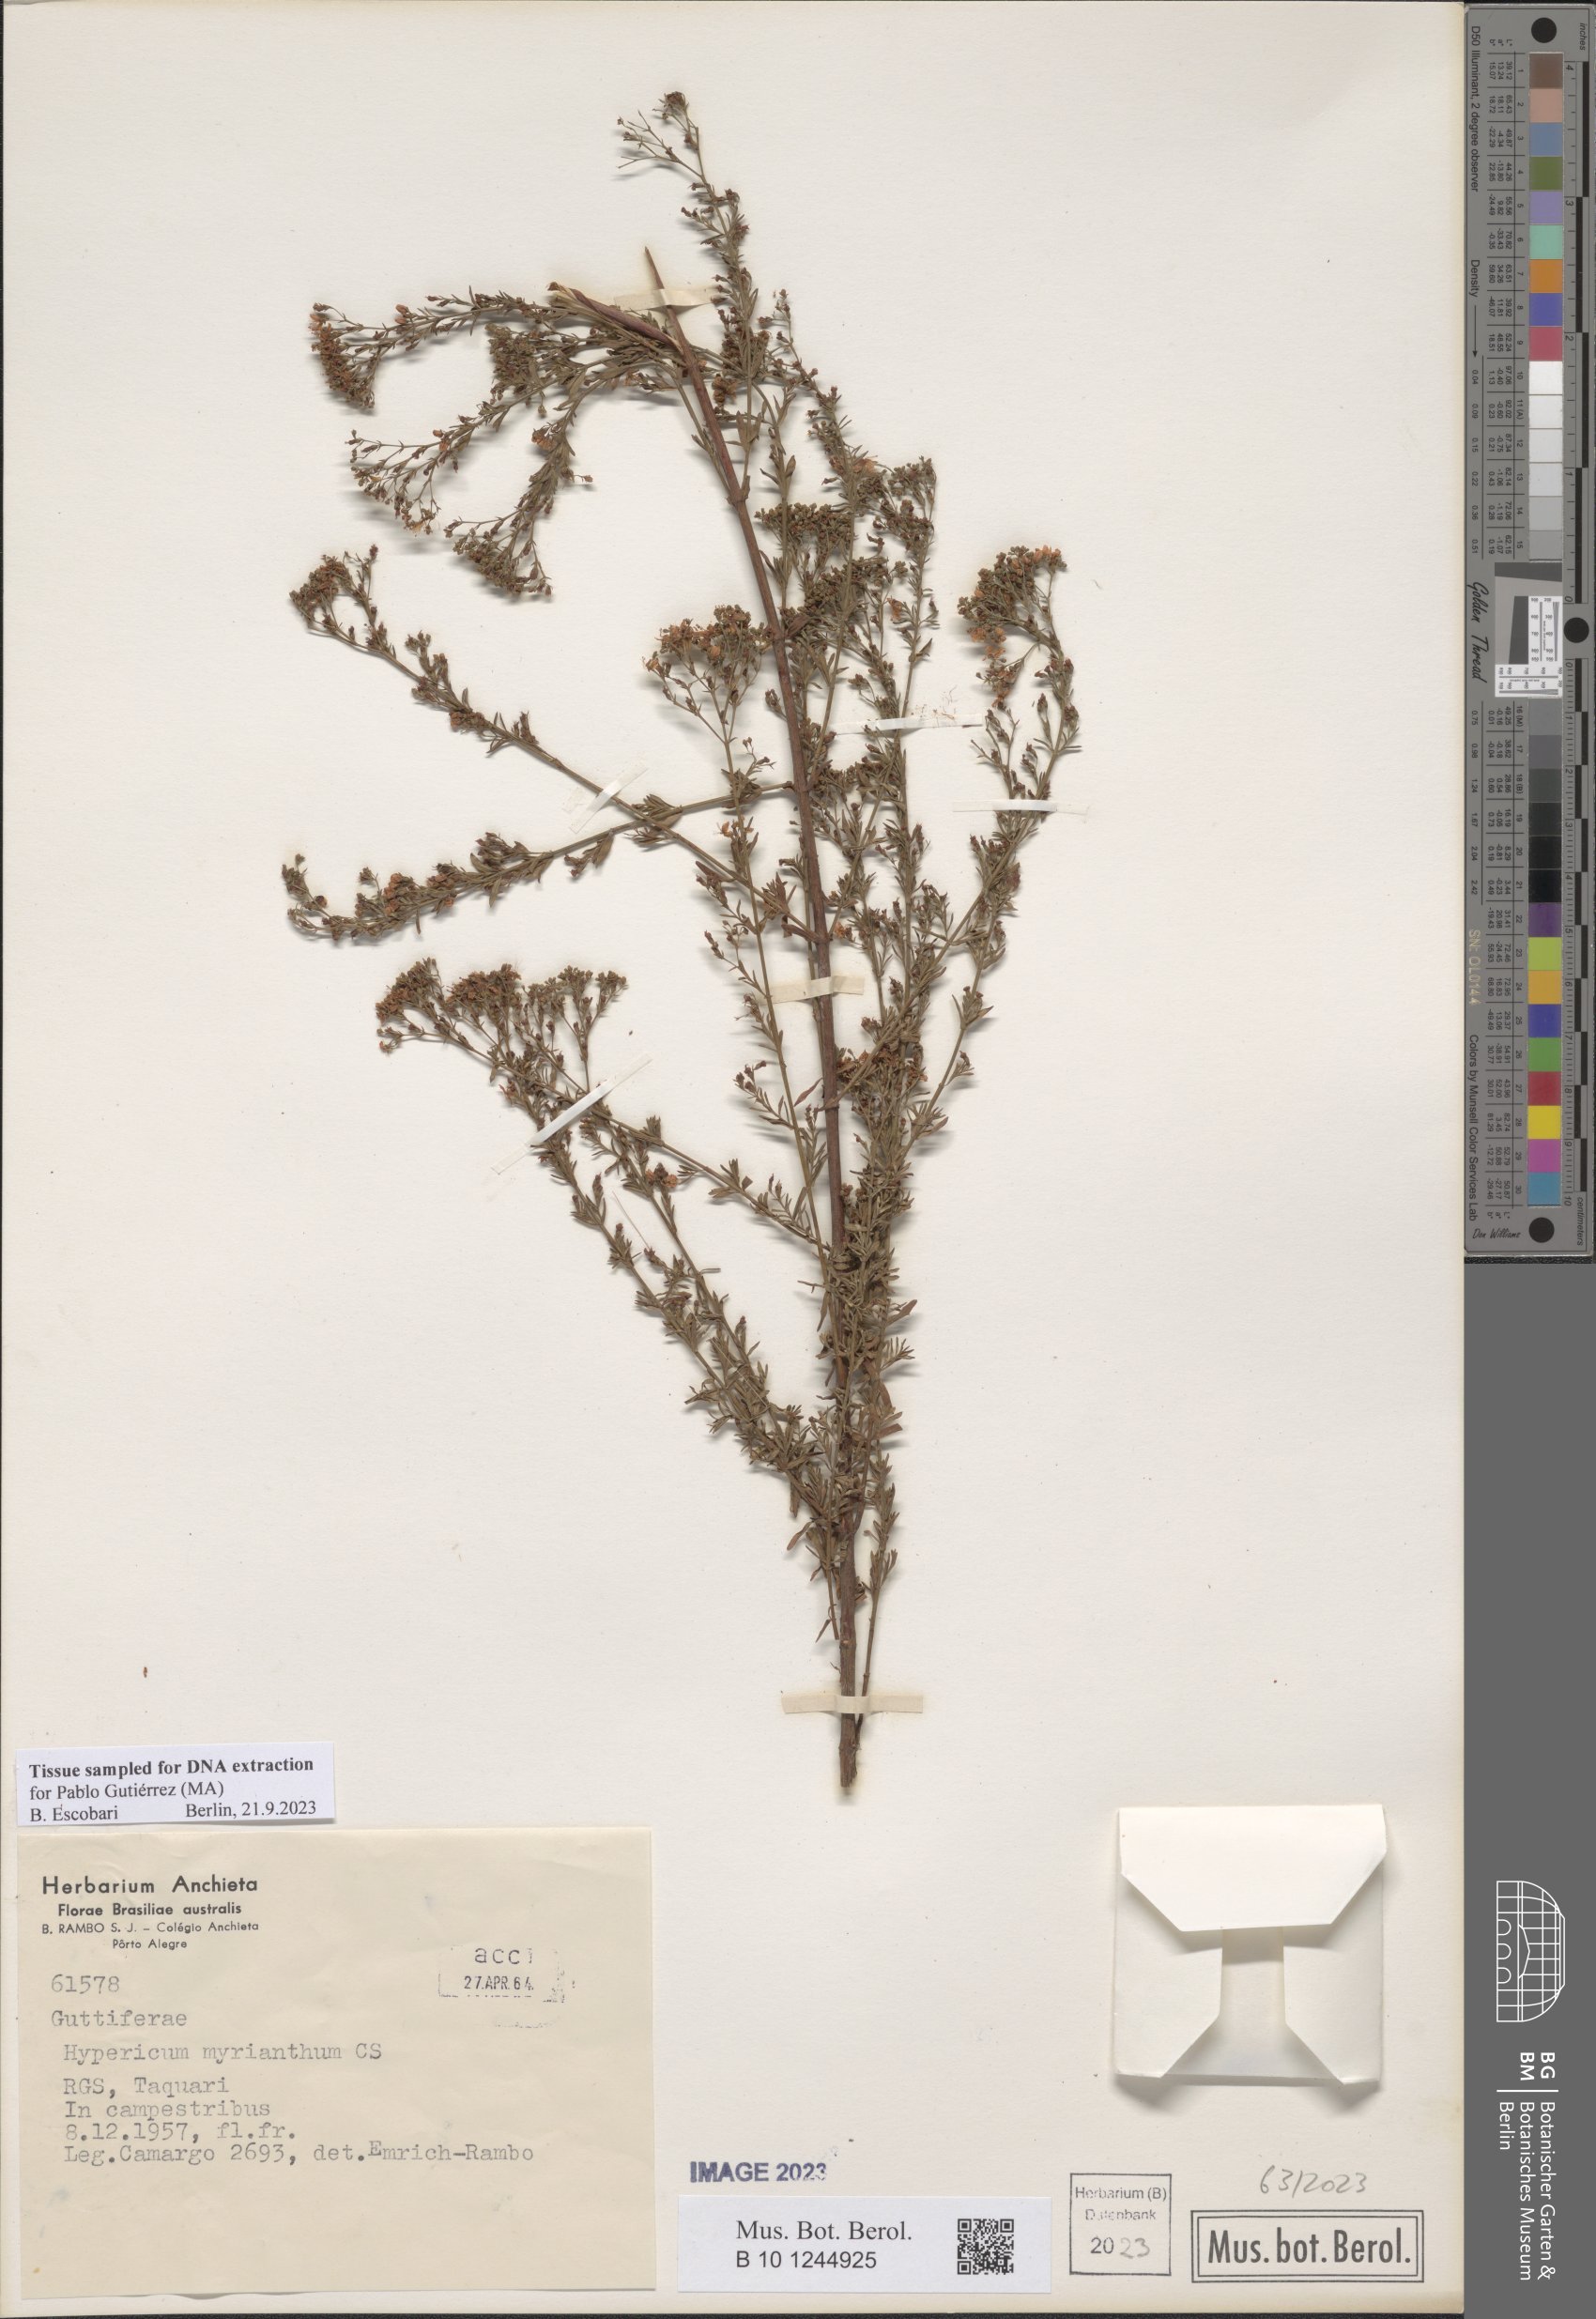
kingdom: Plantae
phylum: Tracheophyta
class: Magnoliopsida
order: Malpighiales
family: Hypericaceae
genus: Hypericum
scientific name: Hypericum myrianthum
